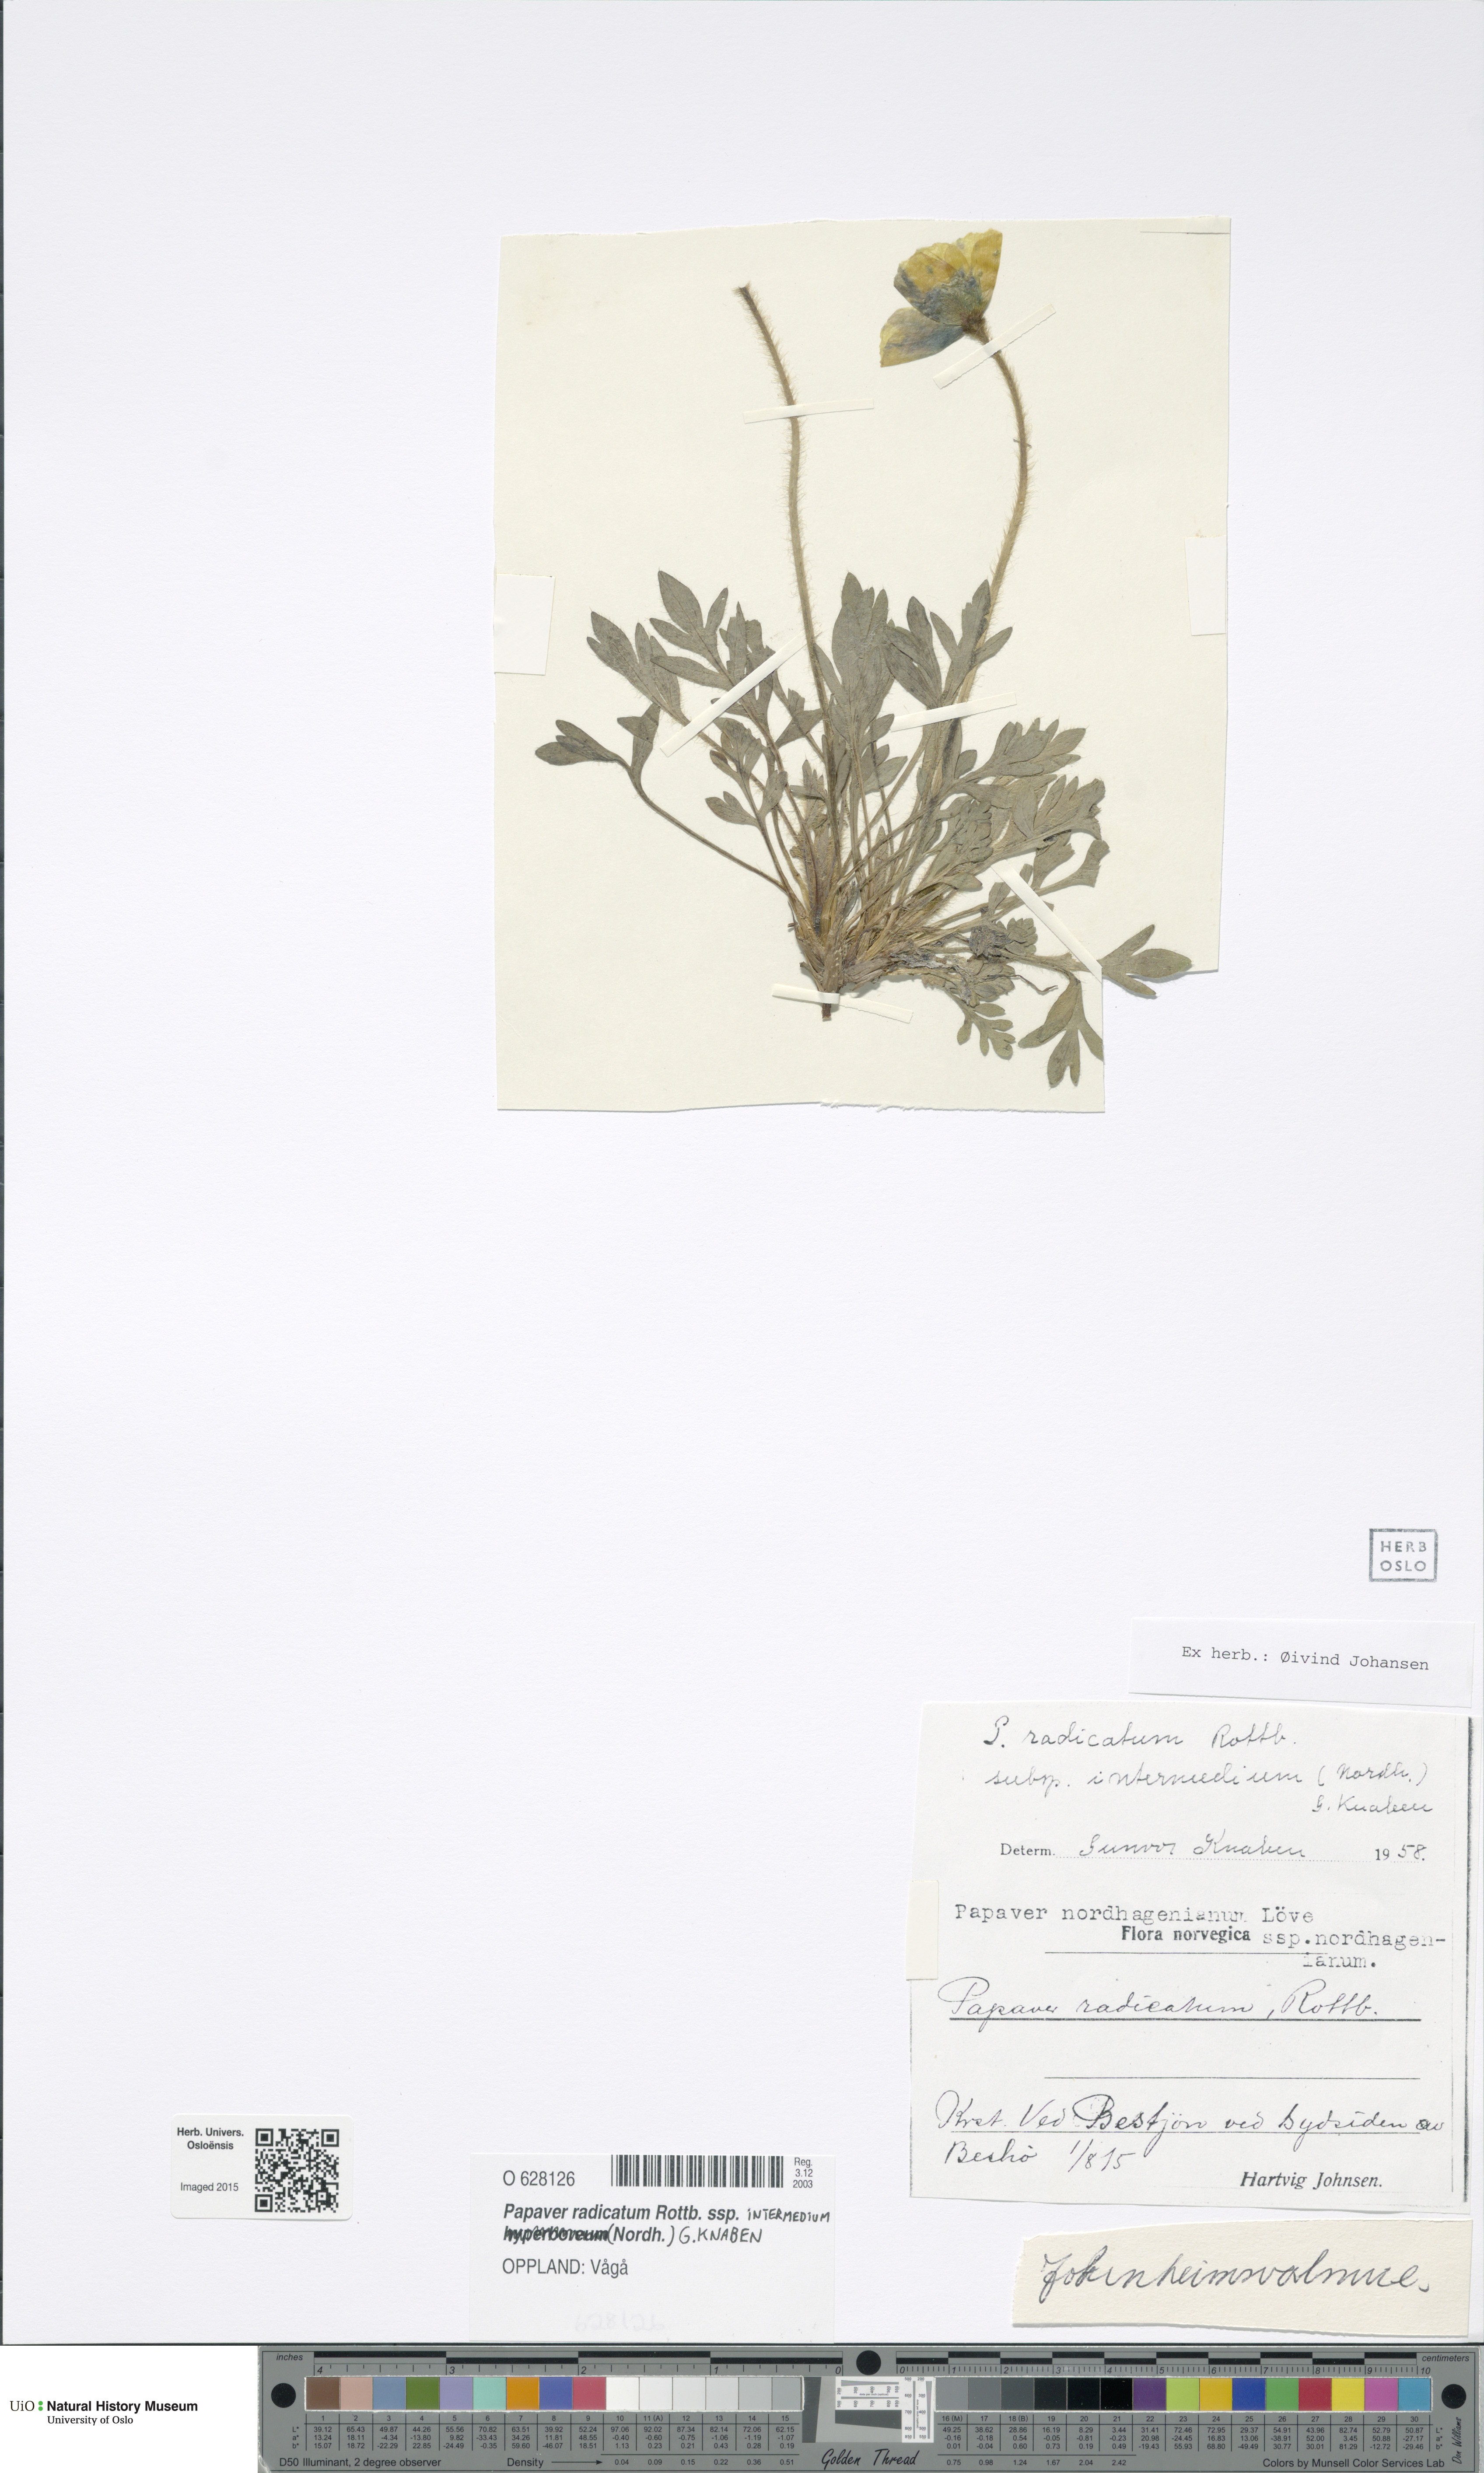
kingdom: Plantae
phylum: Tracheophyta
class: Magnoliopsida
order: Ranunculales
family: Papaveraceae
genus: Papaver
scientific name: Papaver radicatum
